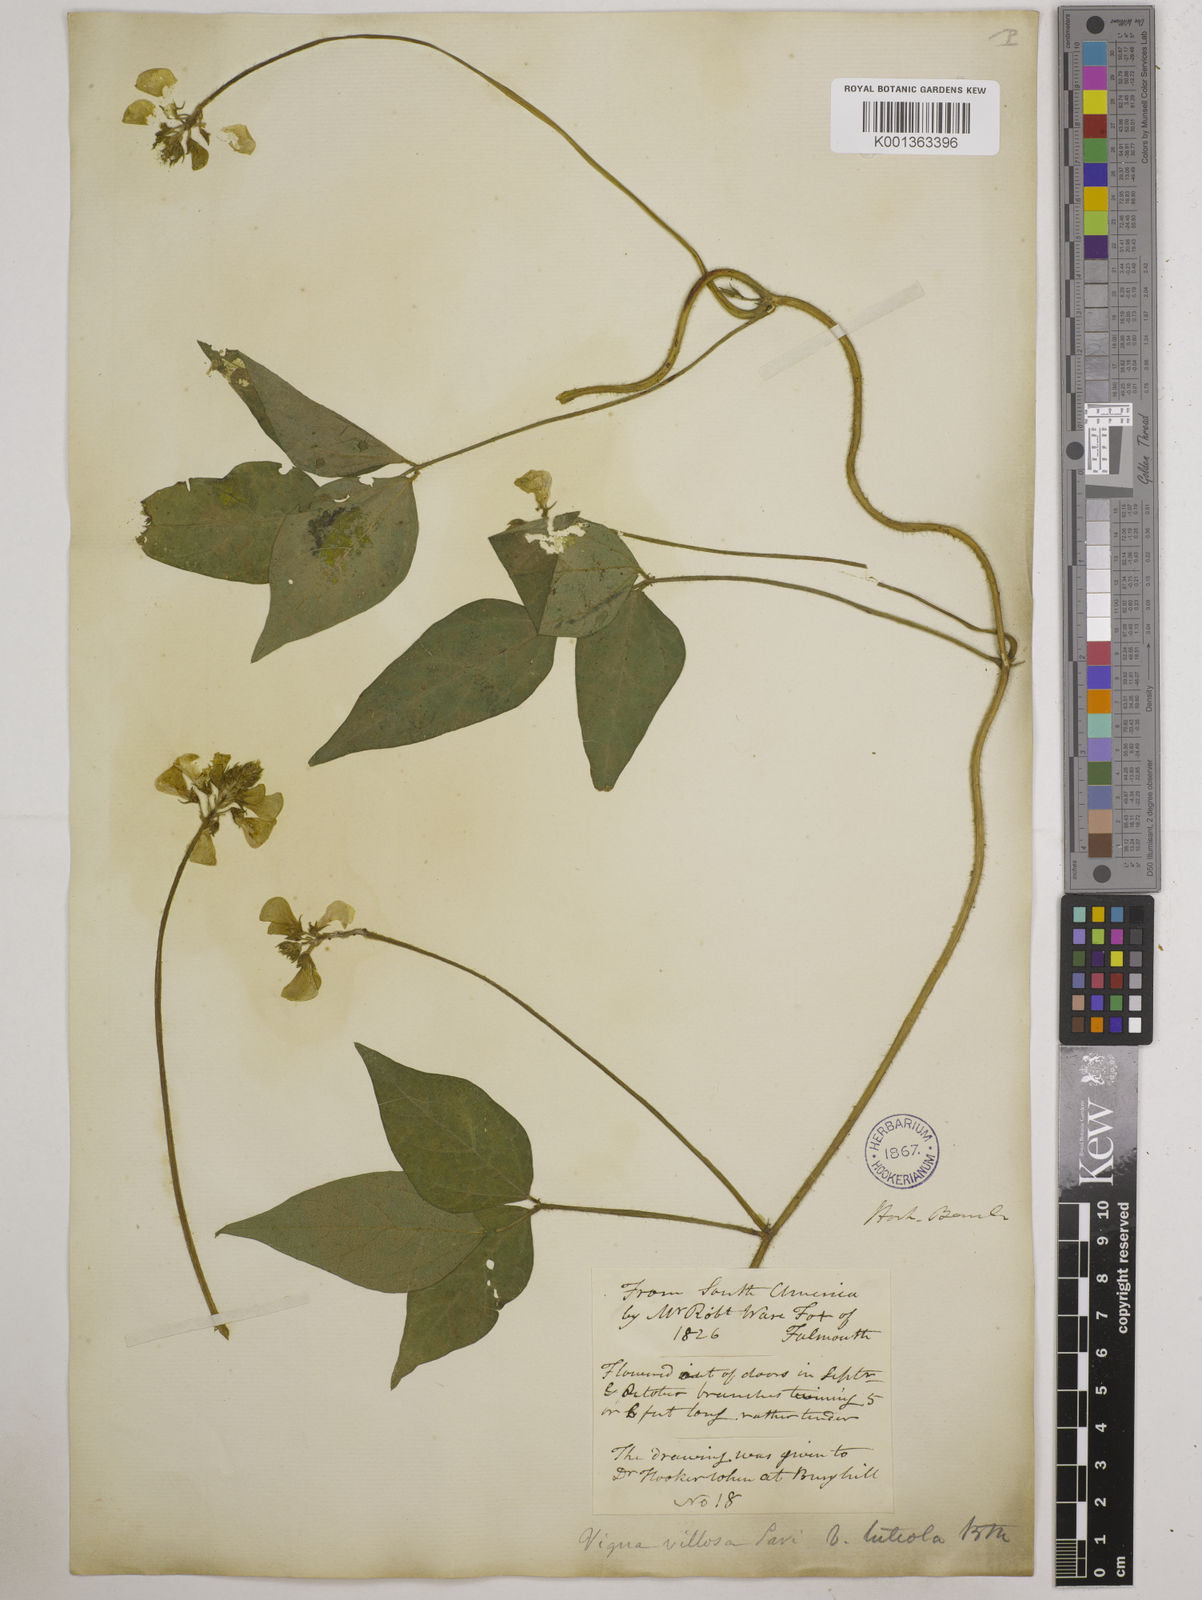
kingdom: Plantae
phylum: Tracheophyta
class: Magnoliopsida
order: Fabales
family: Fabaceae
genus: Vigna
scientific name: Vigna luteola
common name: Hairypod cowpea
